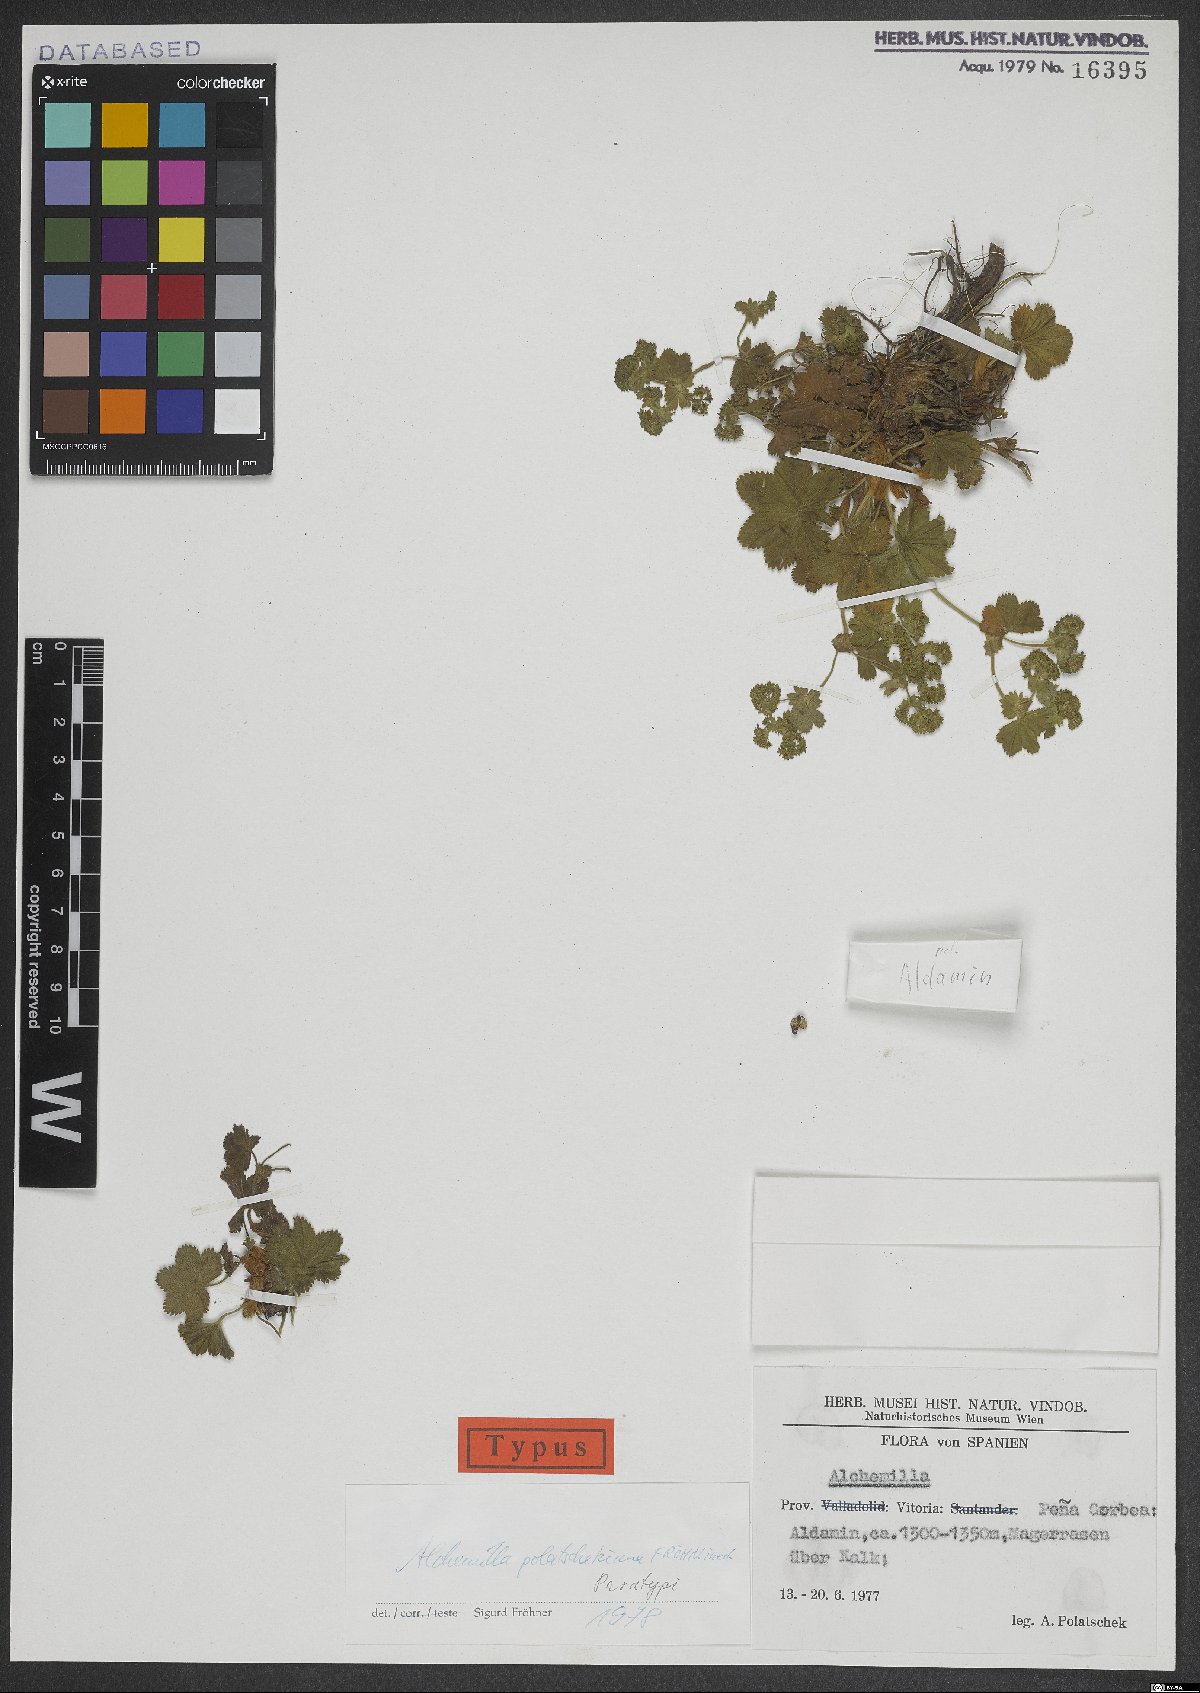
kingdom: Plantae
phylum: Tracheophyta
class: Magnoliopsida
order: Rosales
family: Rosaceae
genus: Alchemilla
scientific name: Alchemilla polatschekiana
